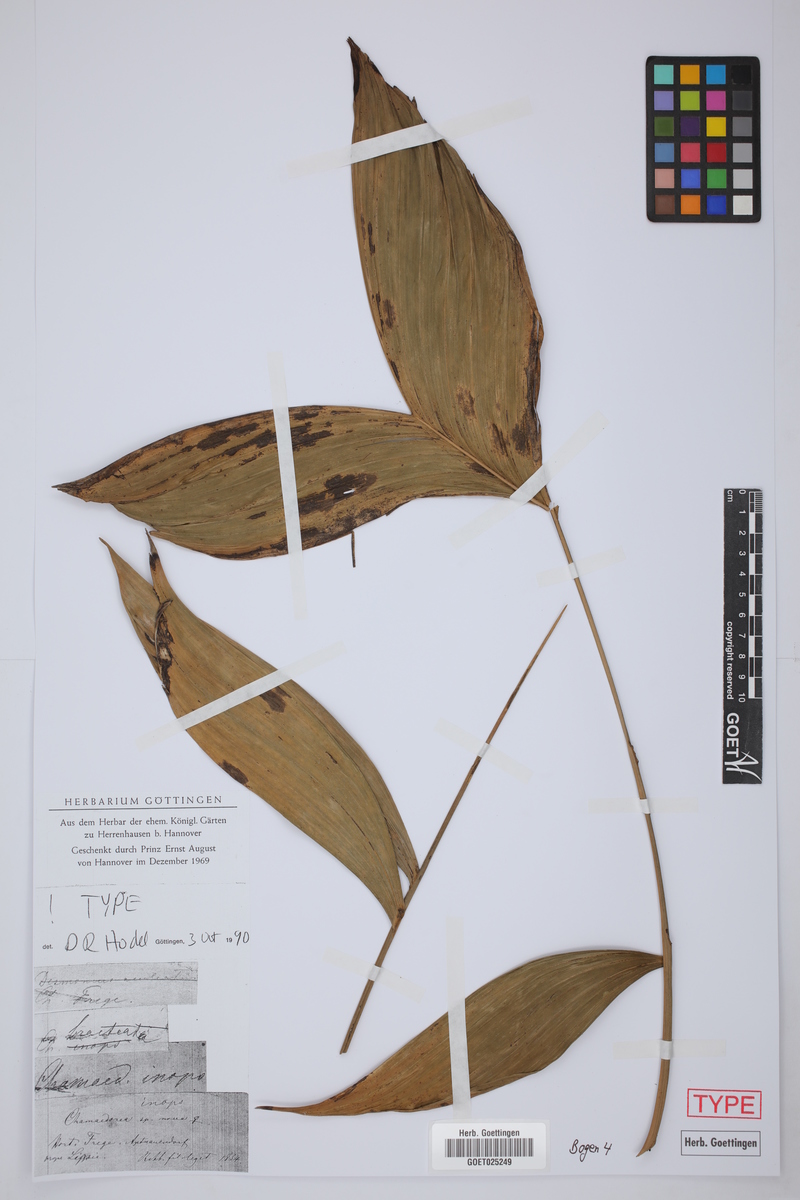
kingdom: Plantae
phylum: Tracheophyta
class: Liliopsida
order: Arecales
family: Arecaceae
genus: Chamaedorea
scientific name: Chamaedorea
